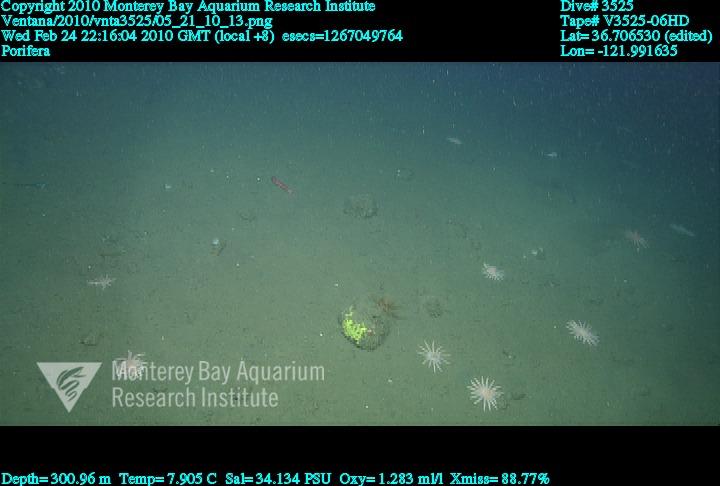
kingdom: Animalia
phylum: Porifera
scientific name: Porifera
